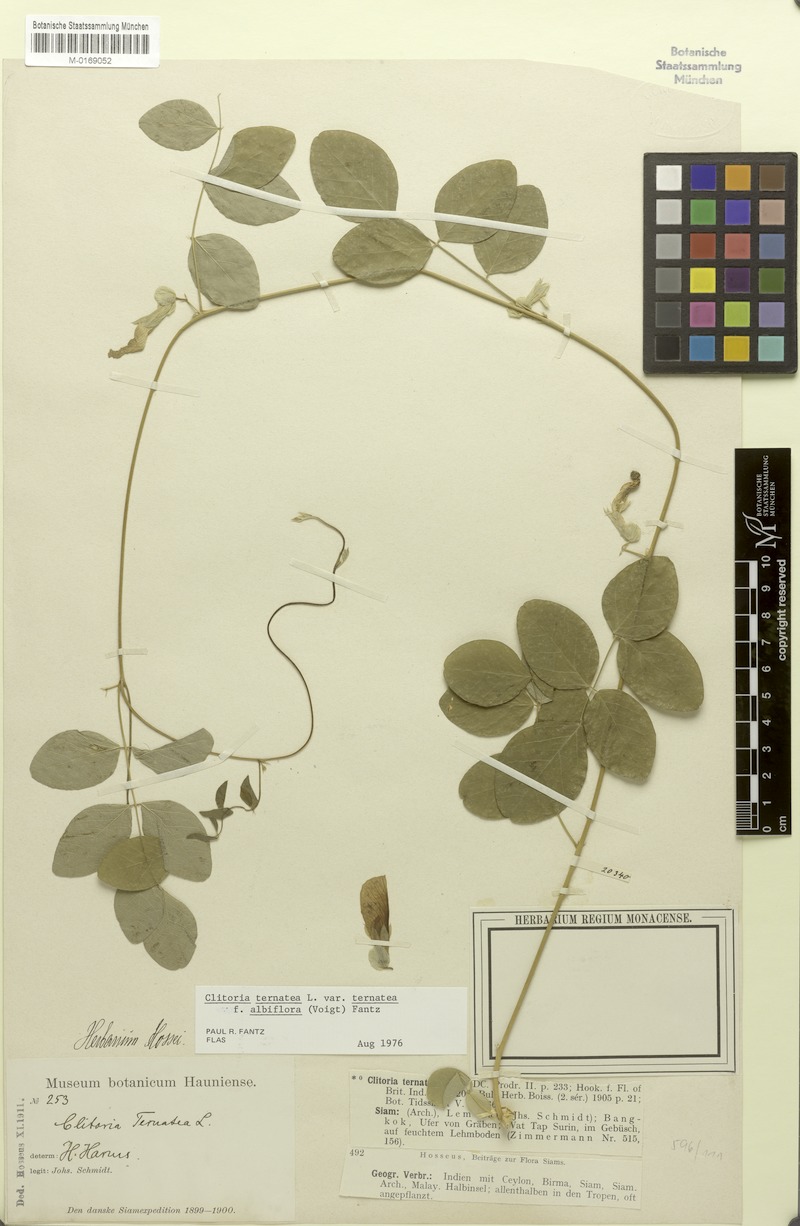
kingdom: Plantae
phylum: Tracheophyta
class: Magnoliopsida
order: Fabales
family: Fabaceae
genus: Clitoria
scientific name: Clitoria ternatea
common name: Asian pigeonwings
